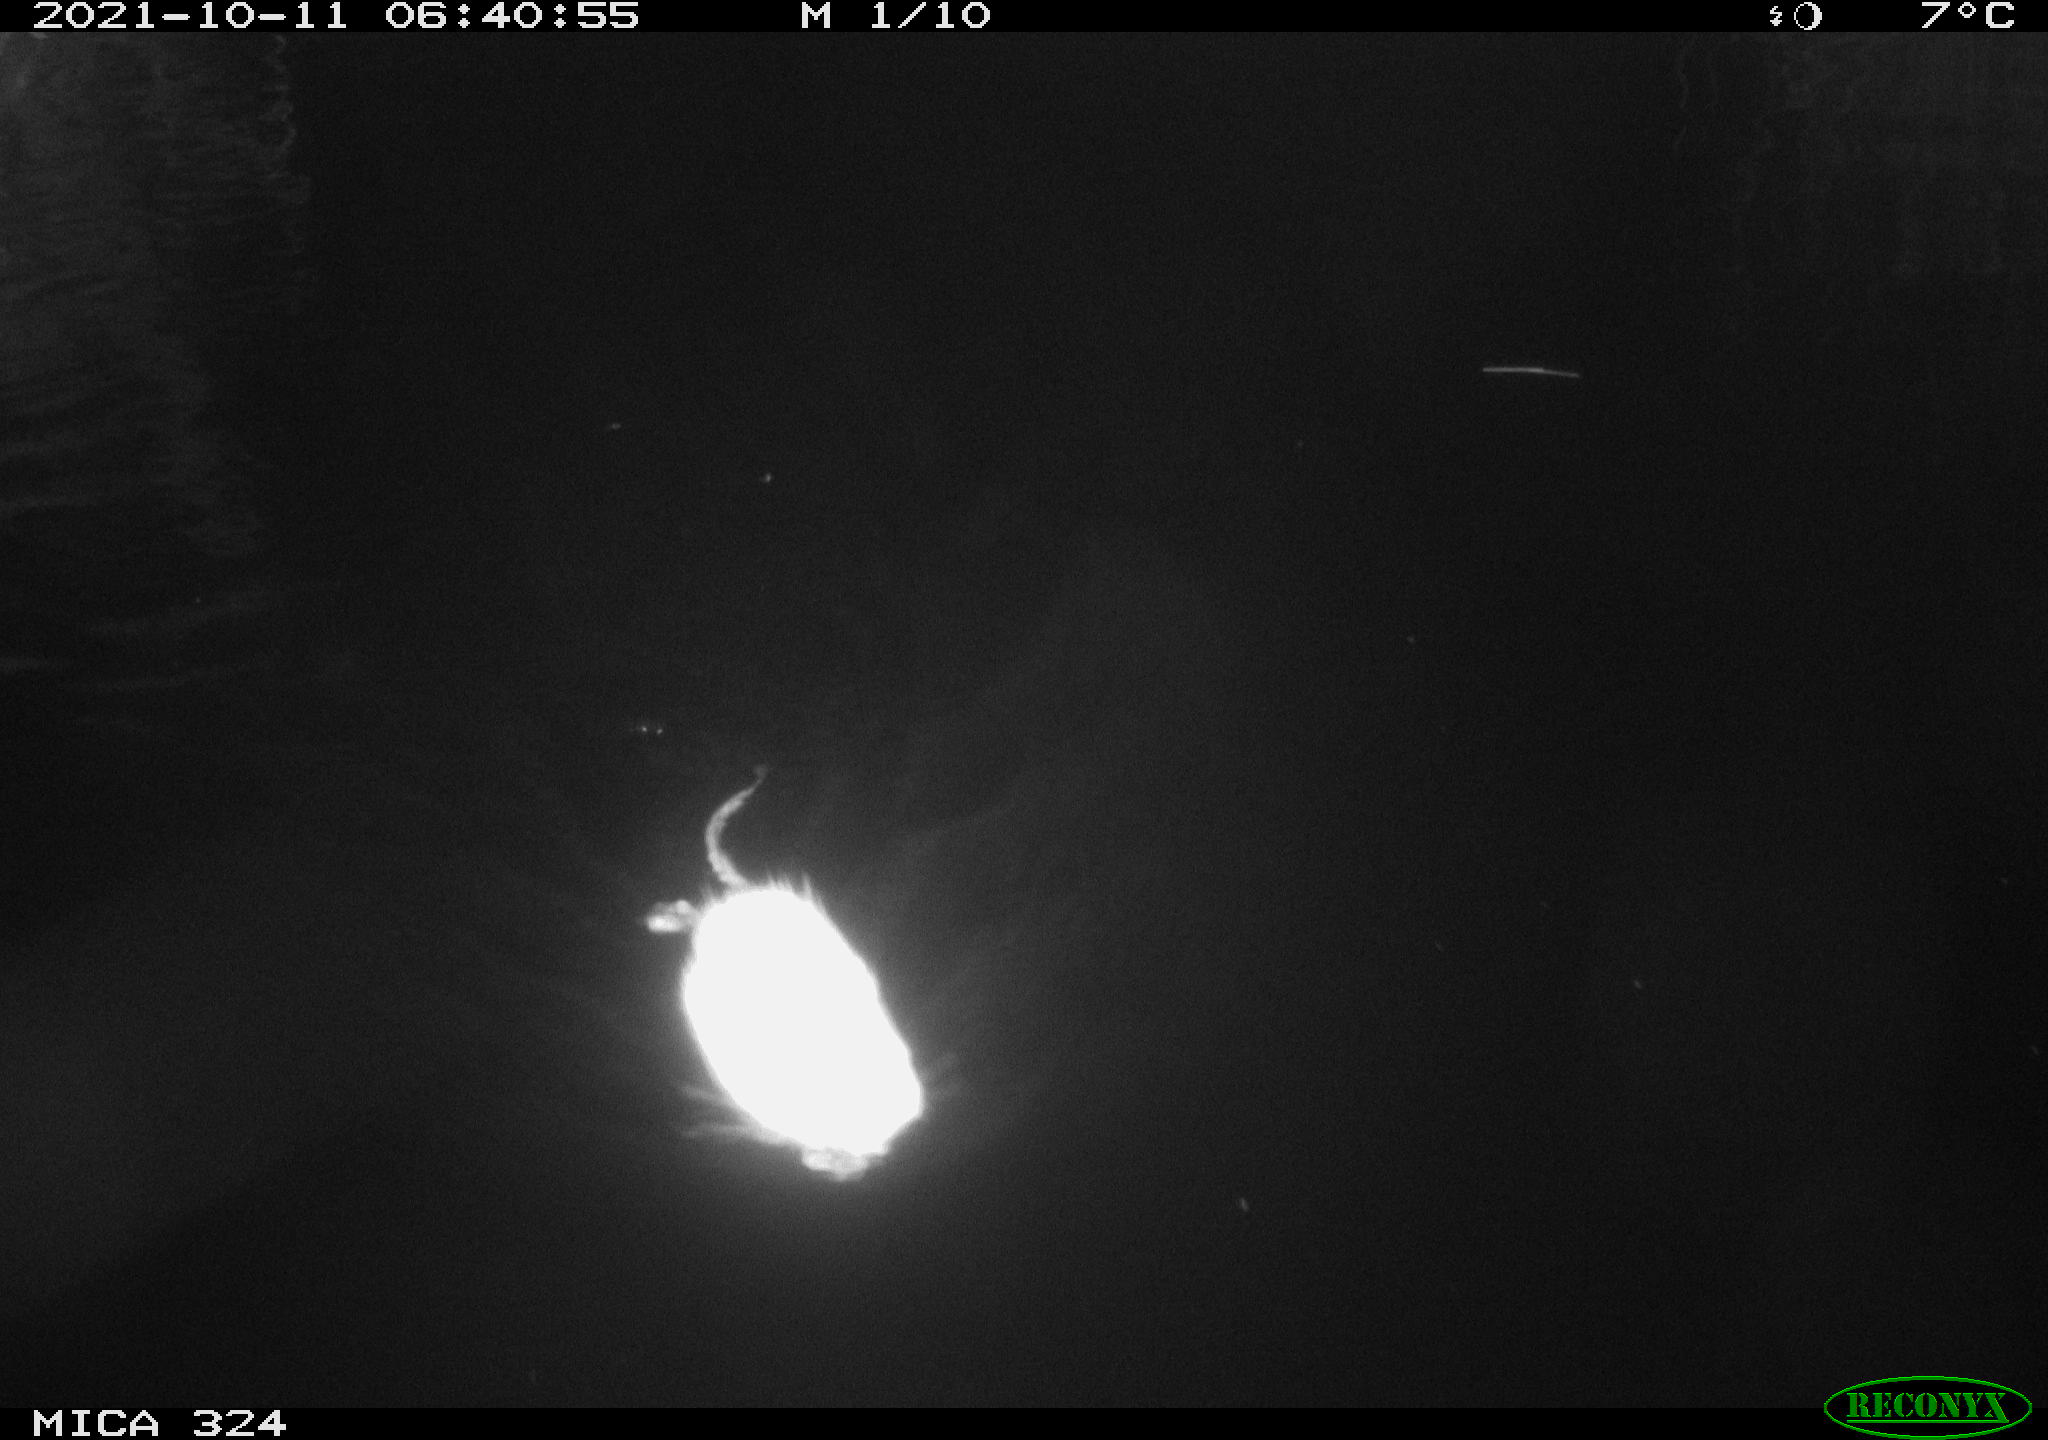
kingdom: Animalia
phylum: Chordata
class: Mammalia
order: Rodentia
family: Cricetidae
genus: Ondatra
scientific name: Ondatra zibethicus
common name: Muskrat
